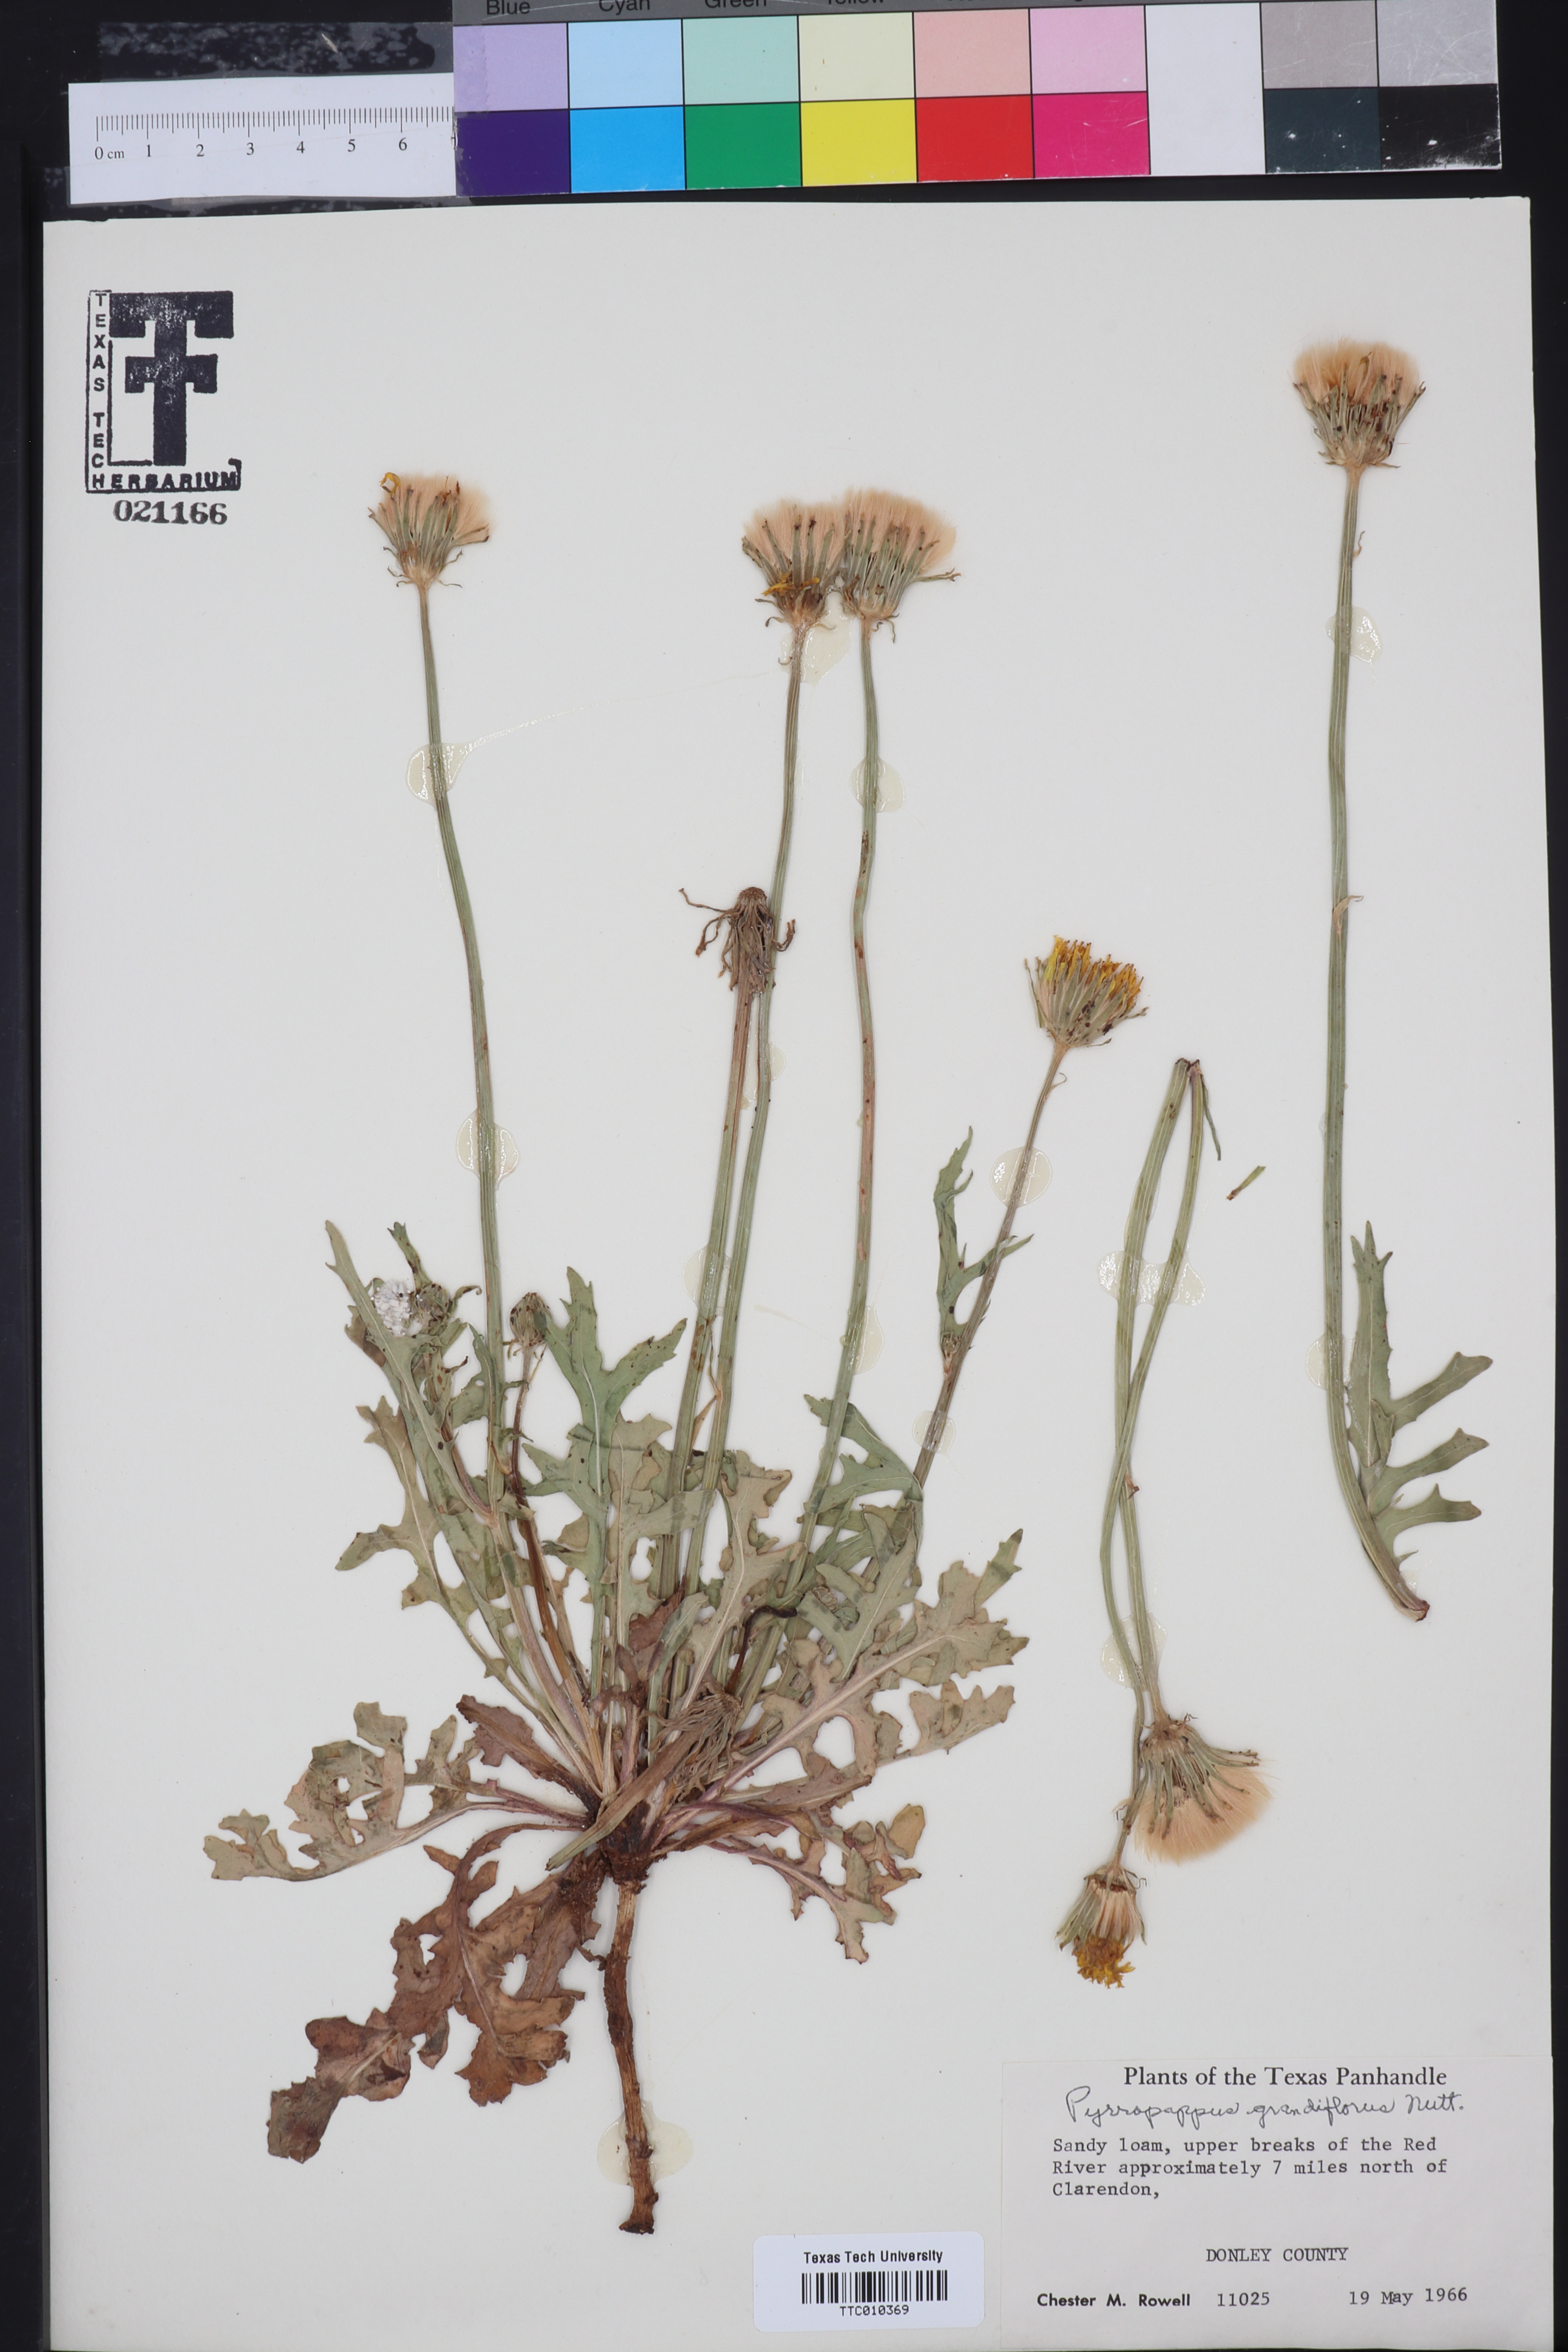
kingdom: Plantae
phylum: Tracheophyta
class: Magnoliopsida
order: Asterales
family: Asteraceae
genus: Pyrrhopappus
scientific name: Pyrrhopappus grandiflorus
